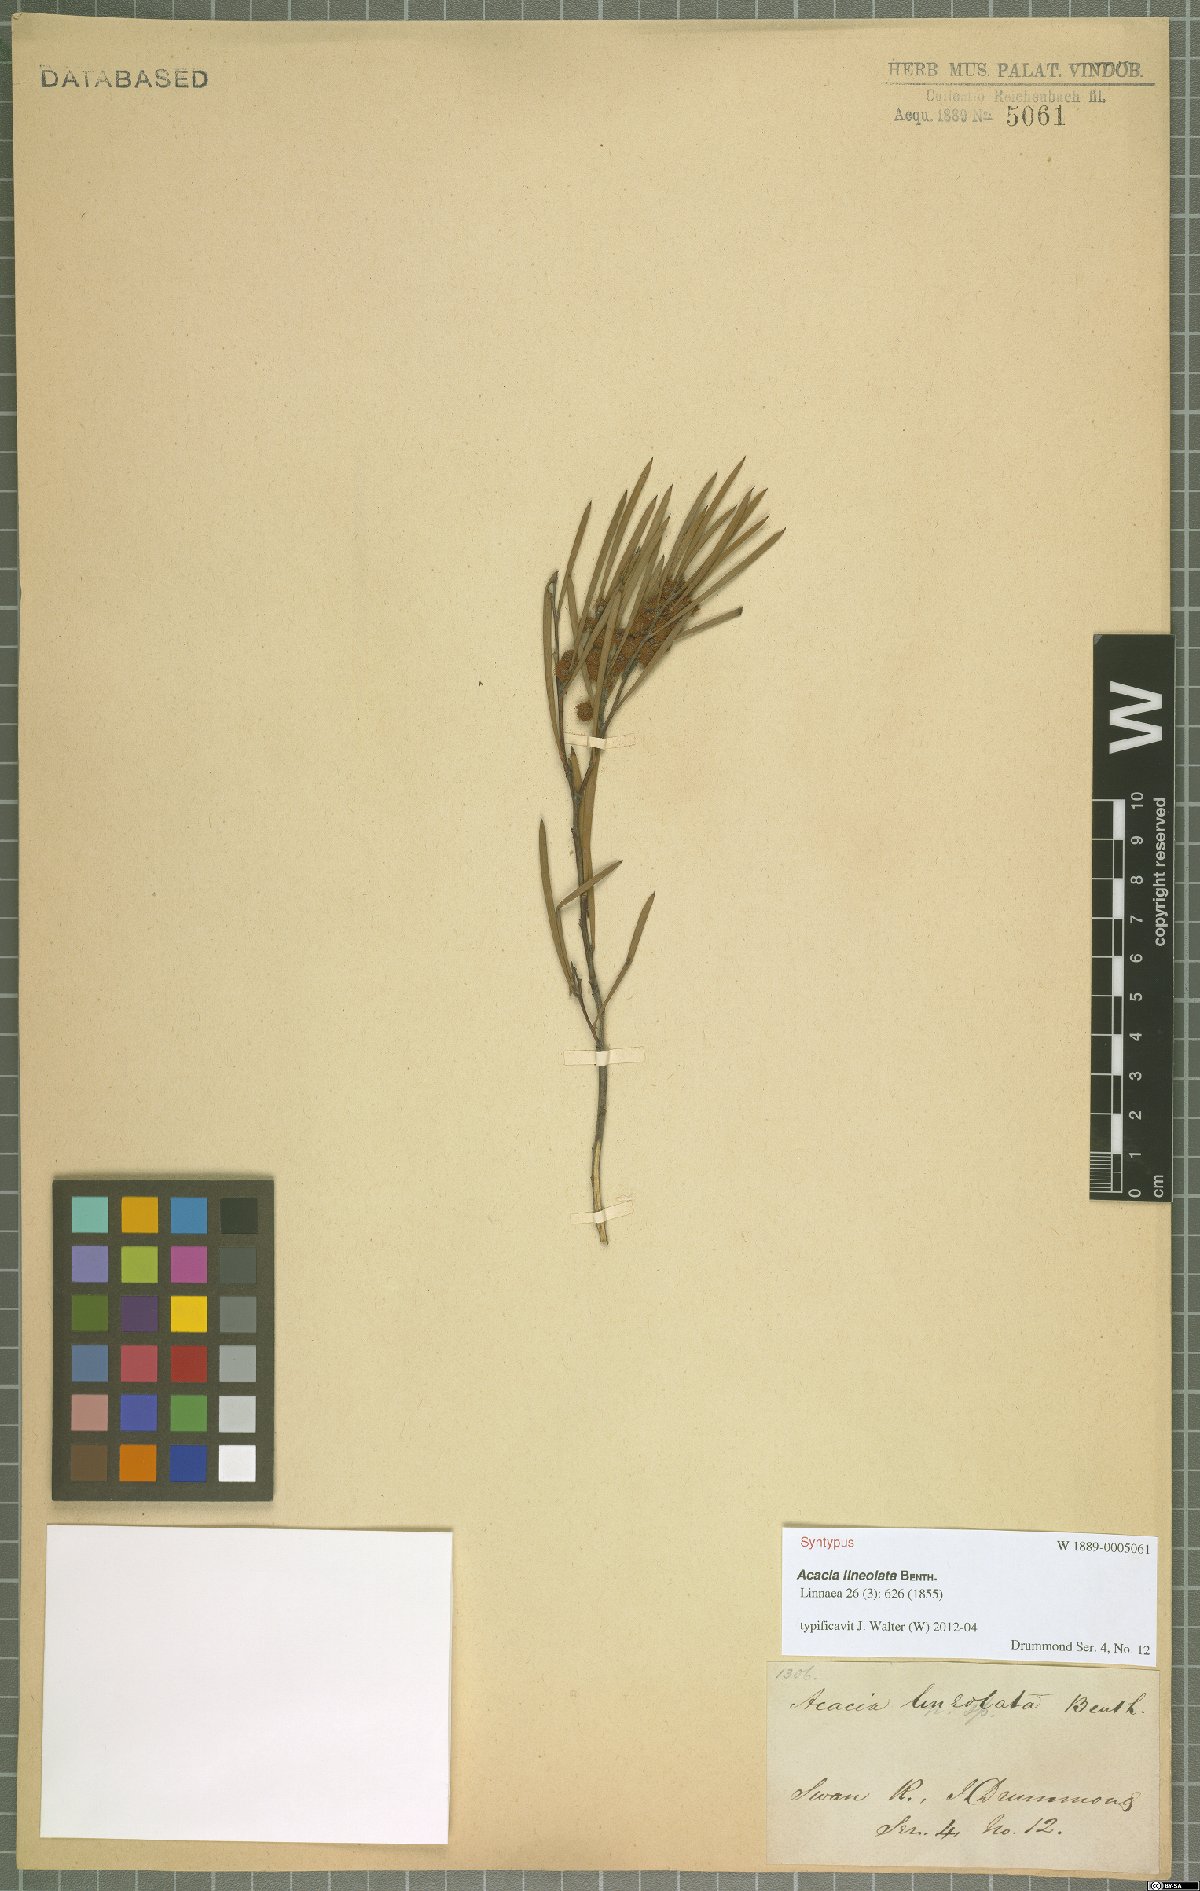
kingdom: Plantae
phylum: Tracheophyta
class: Magnoliopsida
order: Fabales
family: Fabaceae
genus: Acacia
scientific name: Acacia lineolata
